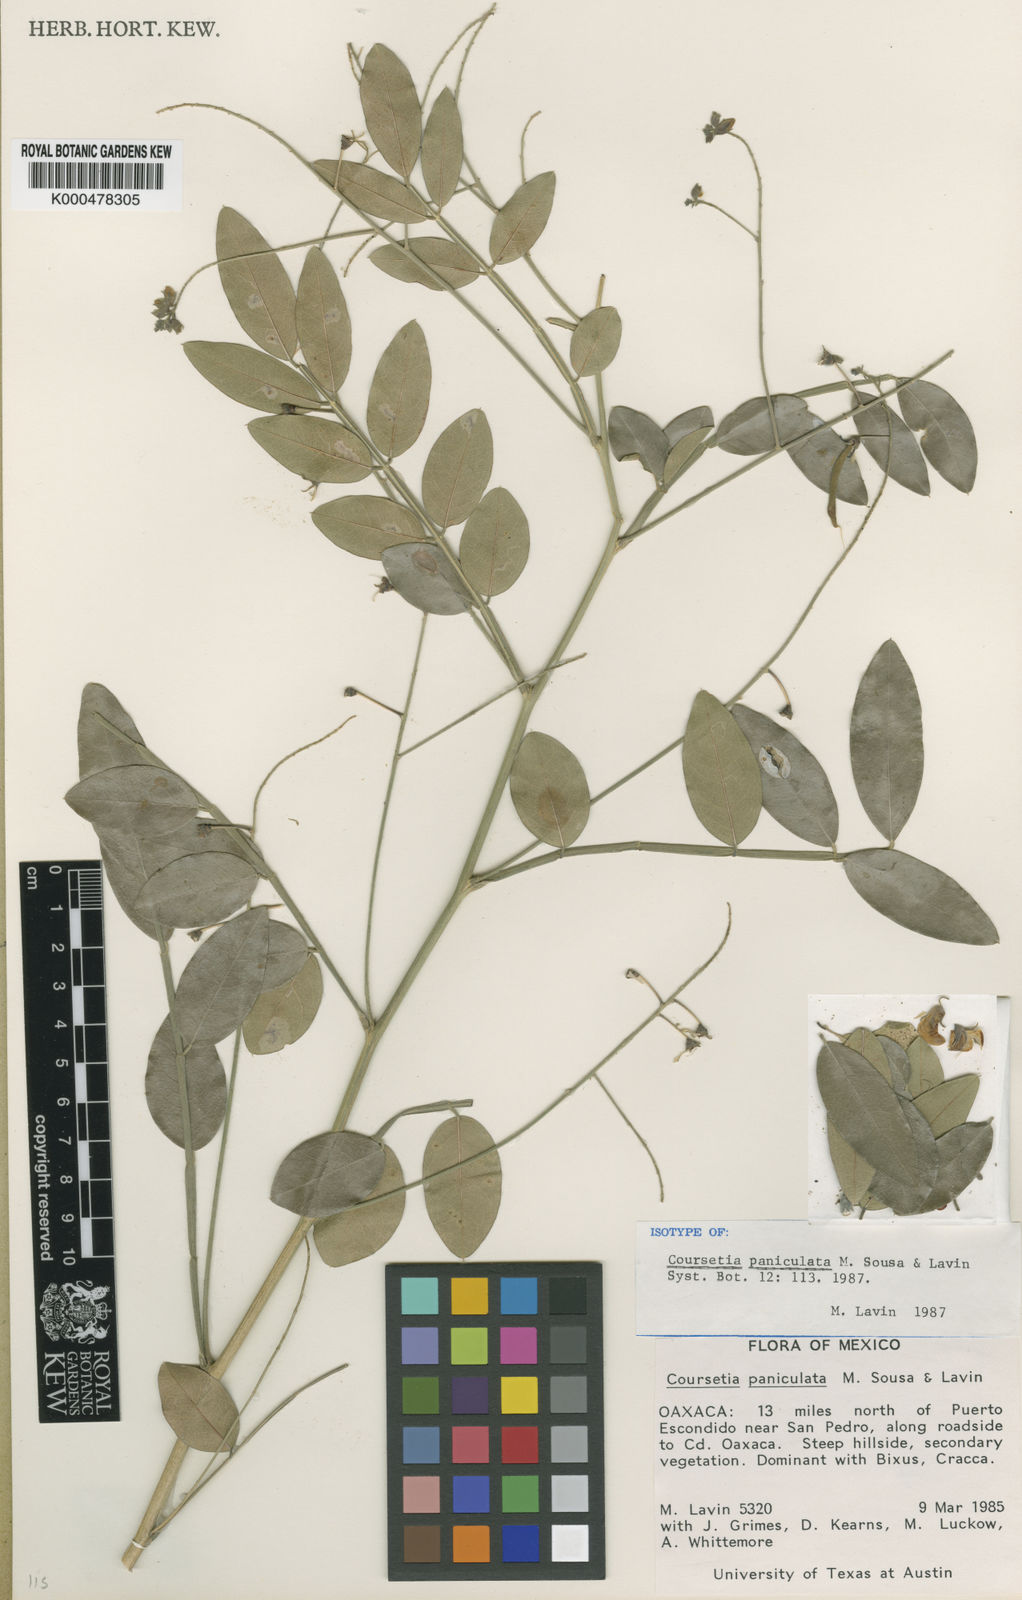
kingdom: Plantae
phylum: Tracheophyta
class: Magnoliopsida
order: Fabales
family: Fabaceae
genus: Coursetia
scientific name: Coursetia paniculata
